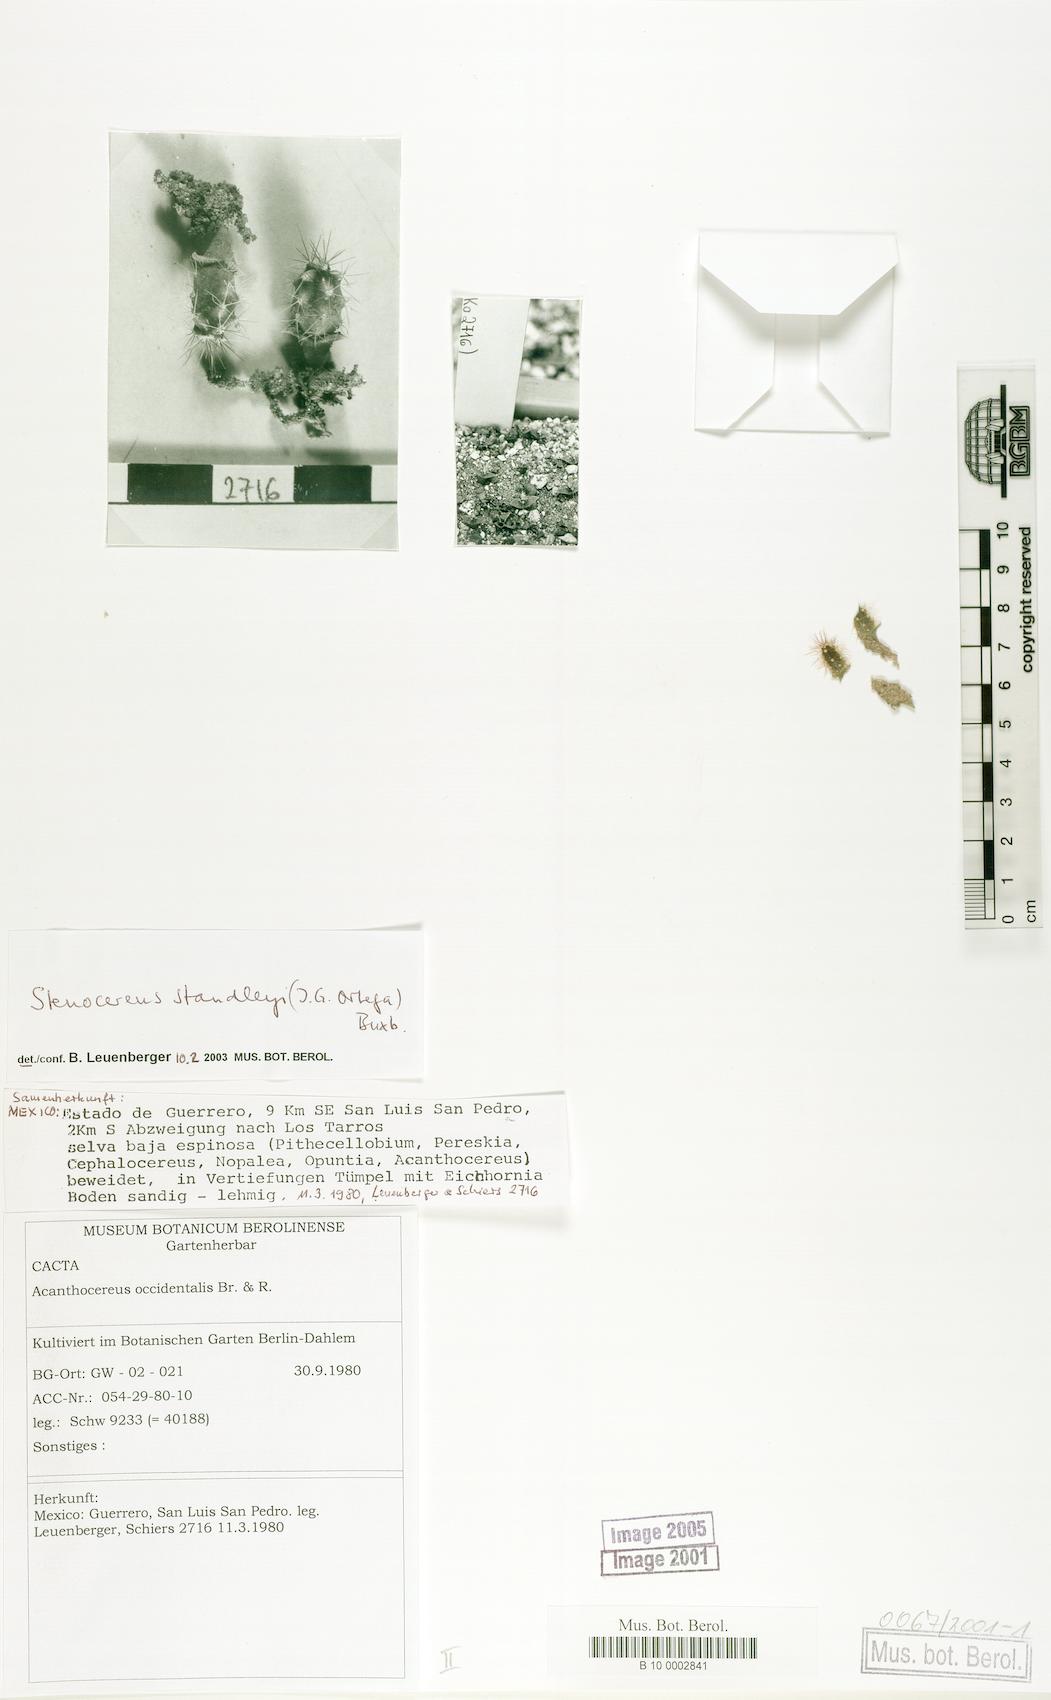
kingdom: Plantae
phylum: Tracheophyta
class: Magnoliopsida
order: Caryophyllales
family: Cactaceae
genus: Stenocereus
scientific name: Stenocereus standleyi
